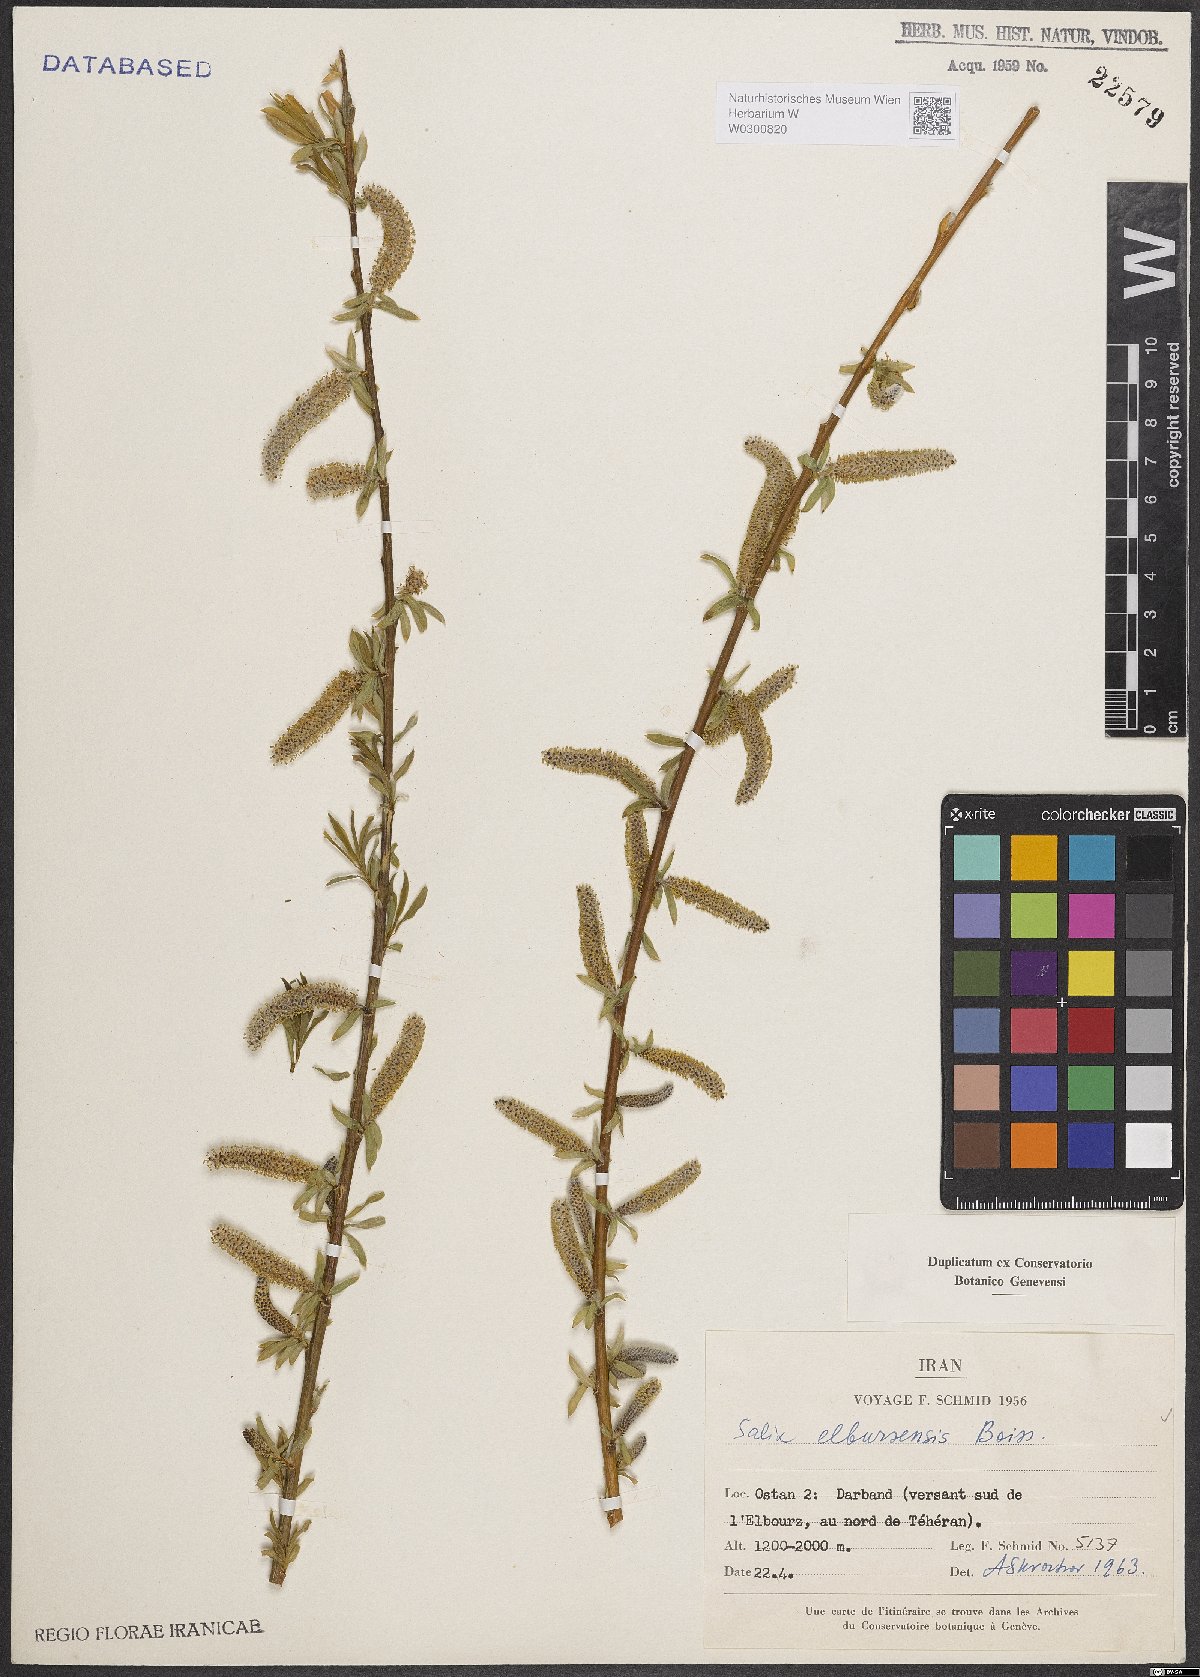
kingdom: Plantae
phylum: Tracheophyta
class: Magnoliopsida
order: Malpighiales
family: Salicaceae
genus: Salix
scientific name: Salix elbursensis
